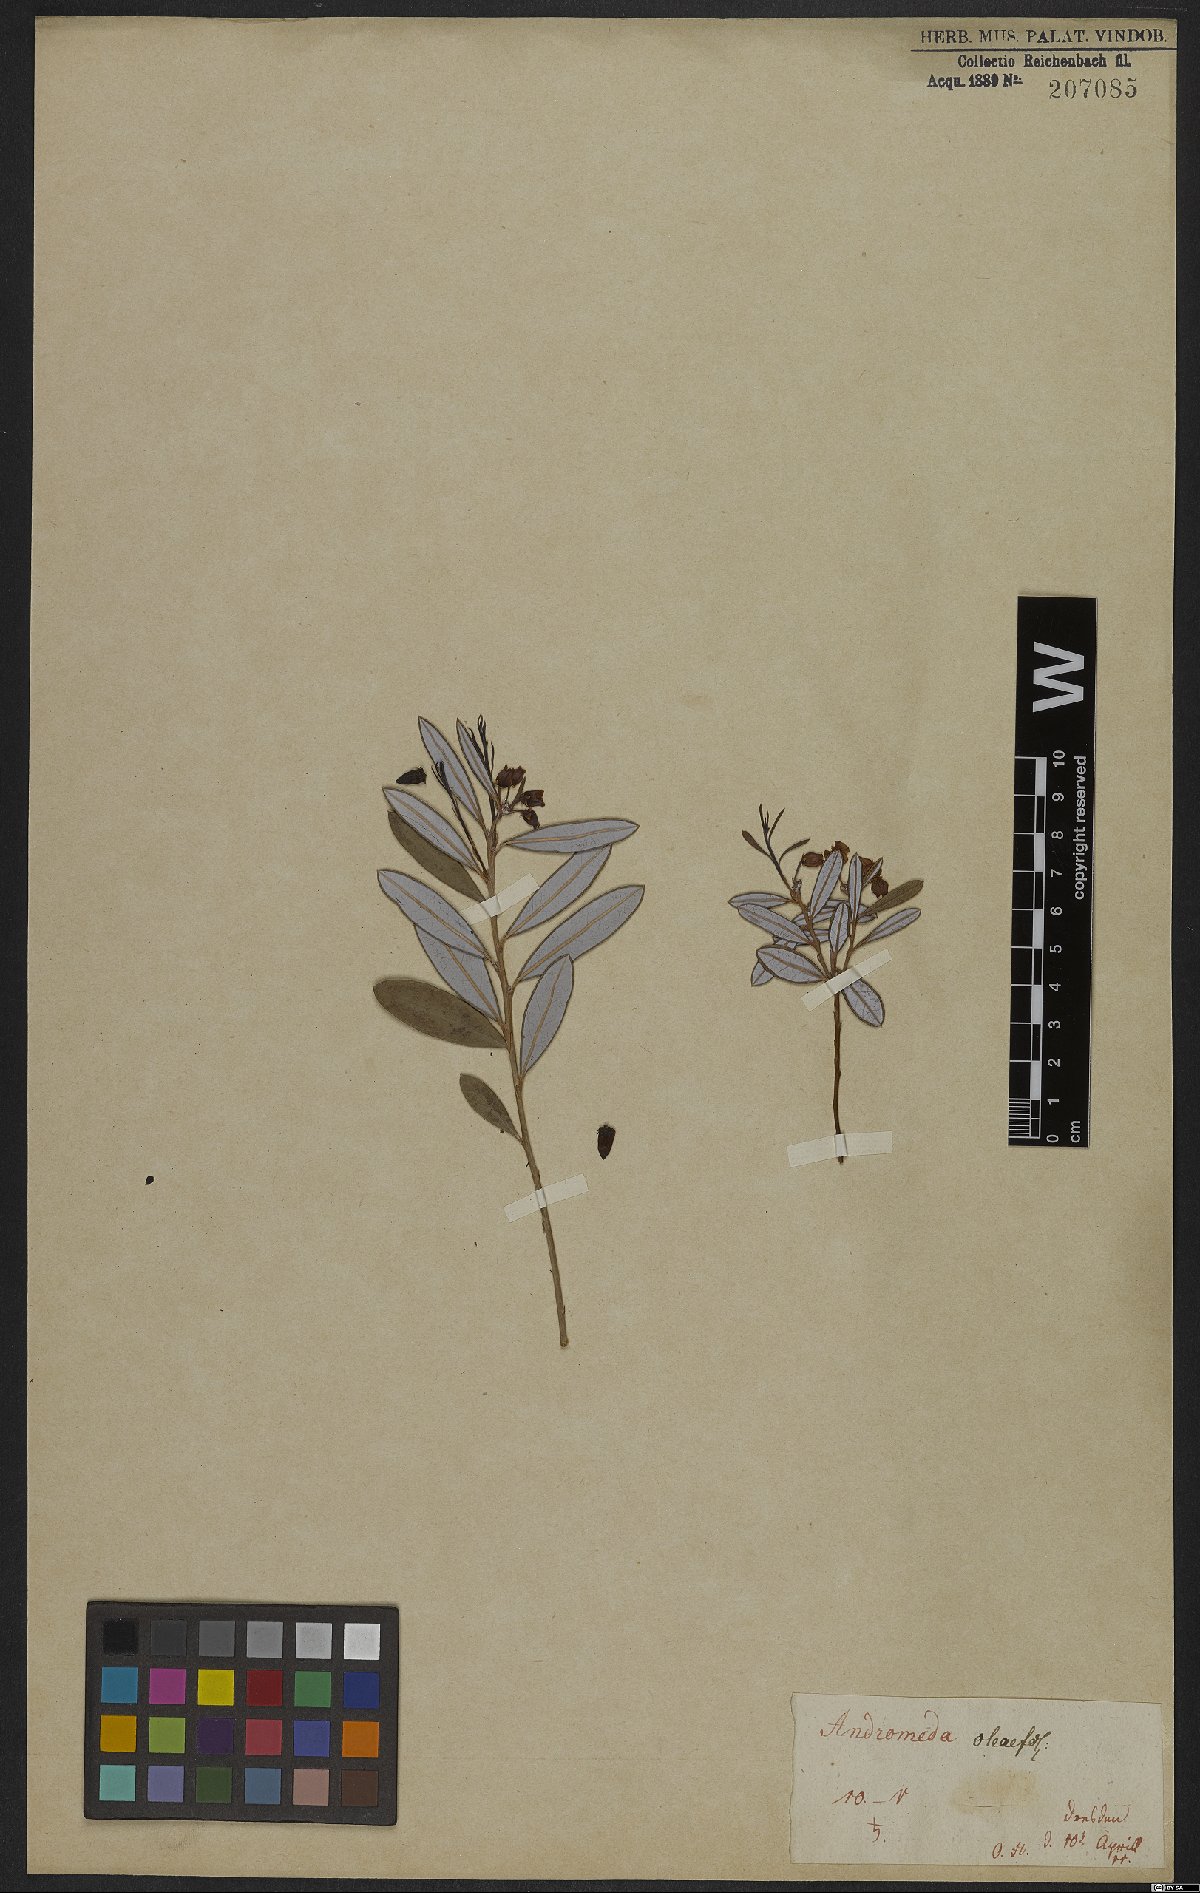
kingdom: Plantae
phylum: Tracheophyta
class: Magnoliopsida
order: Ericales
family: Ericaceae
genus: Agarista
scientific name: Agarista oleifolia
